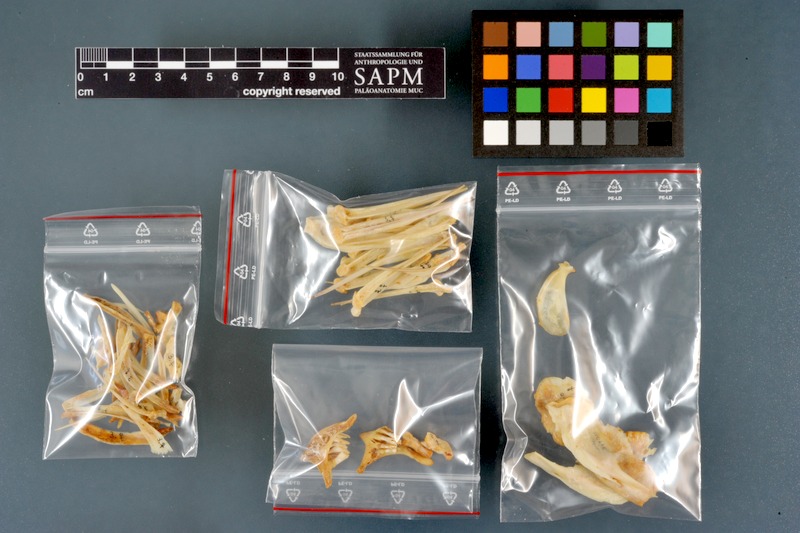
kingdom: Animalia
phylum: Chordata
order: Cypriniformes
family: Cyprinidae
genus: Labeo
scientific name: Labeo horie
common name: Assuan labeo
